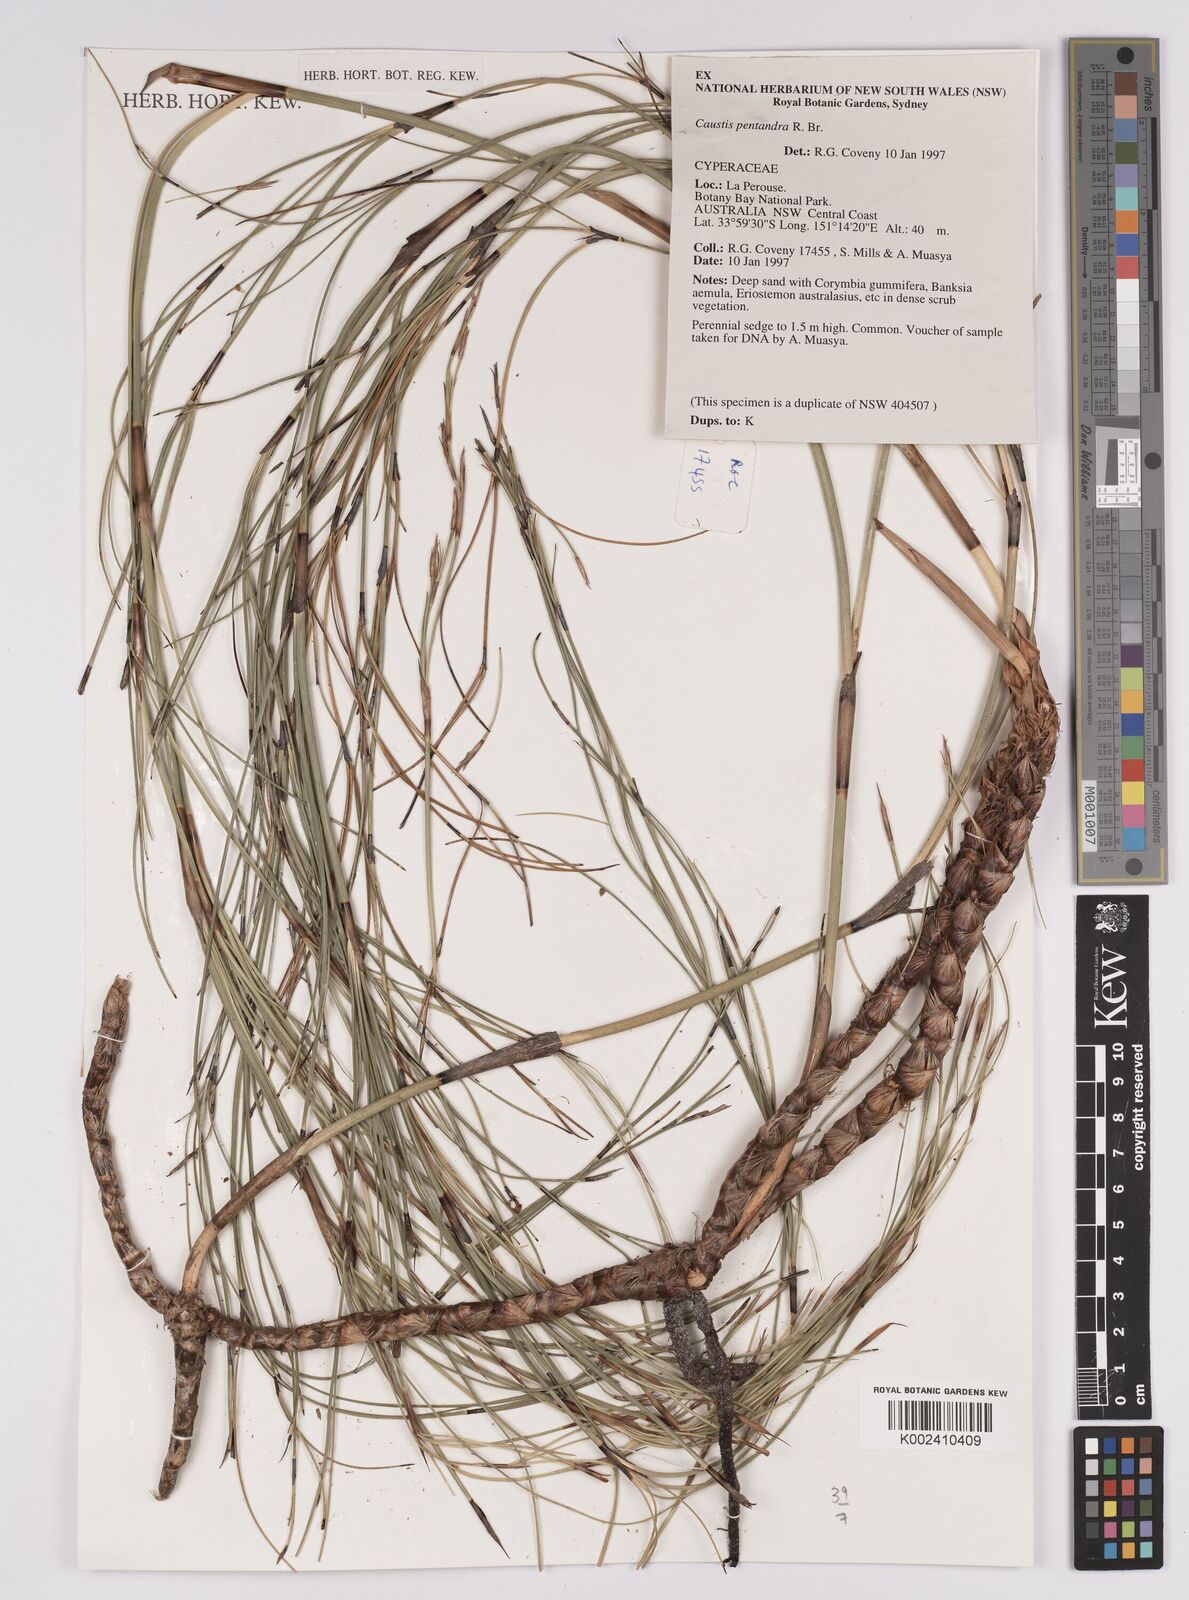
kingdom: Plantae
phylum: Tracheophyta
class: Liliopsida
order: Poales
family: Cyperaceae
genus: Caustis
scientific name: Caustis pentandra
